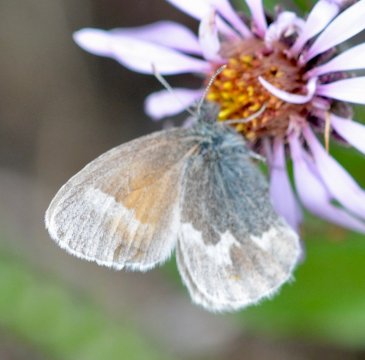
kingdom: Animalia
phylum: Arthropoda
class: Insecta
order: Lepidoptera
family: Nymphalidae
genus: Coenonympha
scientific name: Coenonympha tullia
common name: Large Heath
